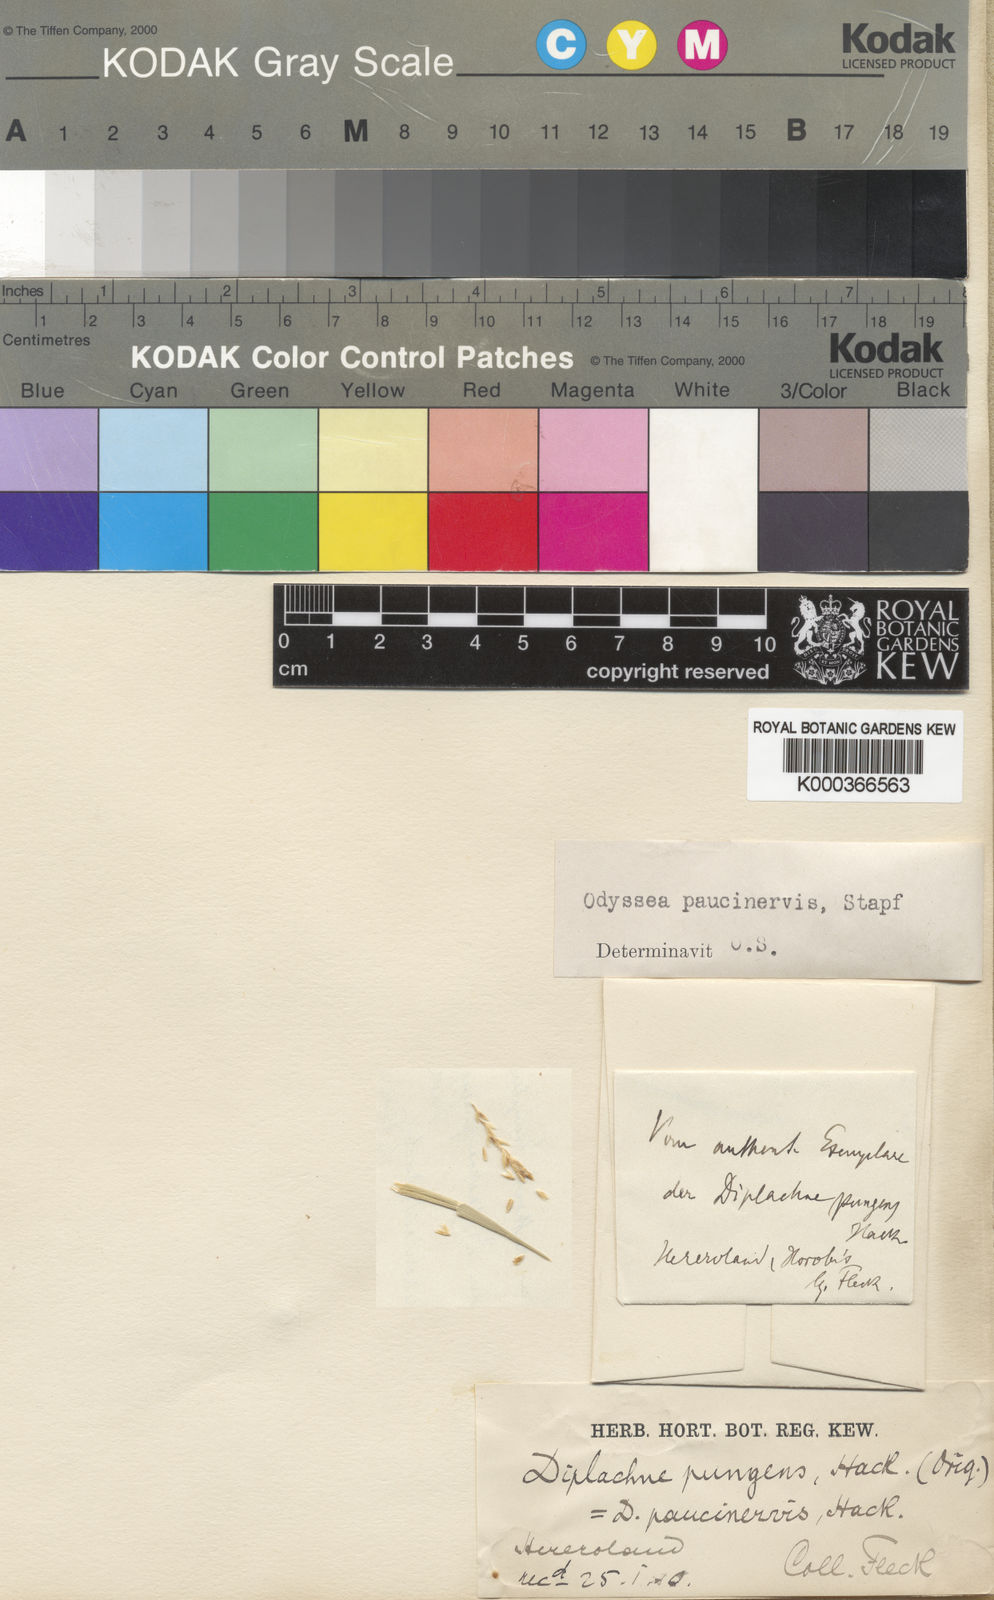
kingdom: Plantae
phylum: Tracheophyta
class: Liliopsida
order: Poales
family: Poaceae
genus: Odyssea
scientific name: Odyssea paucinervis
